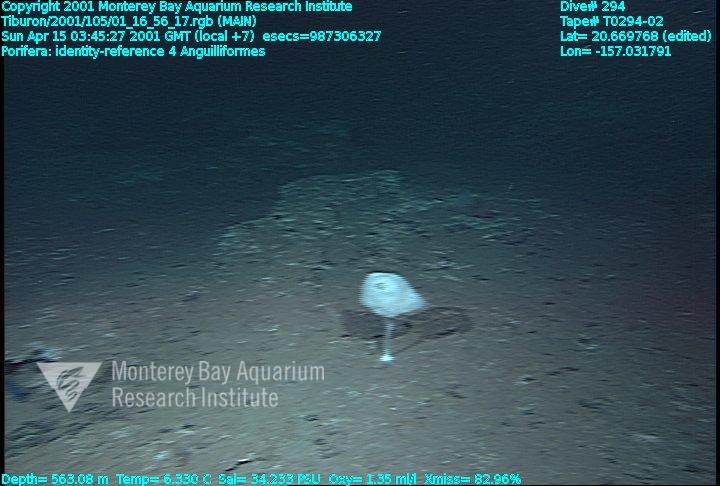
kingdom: Animalia
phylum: Porifera
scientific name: Porifera
